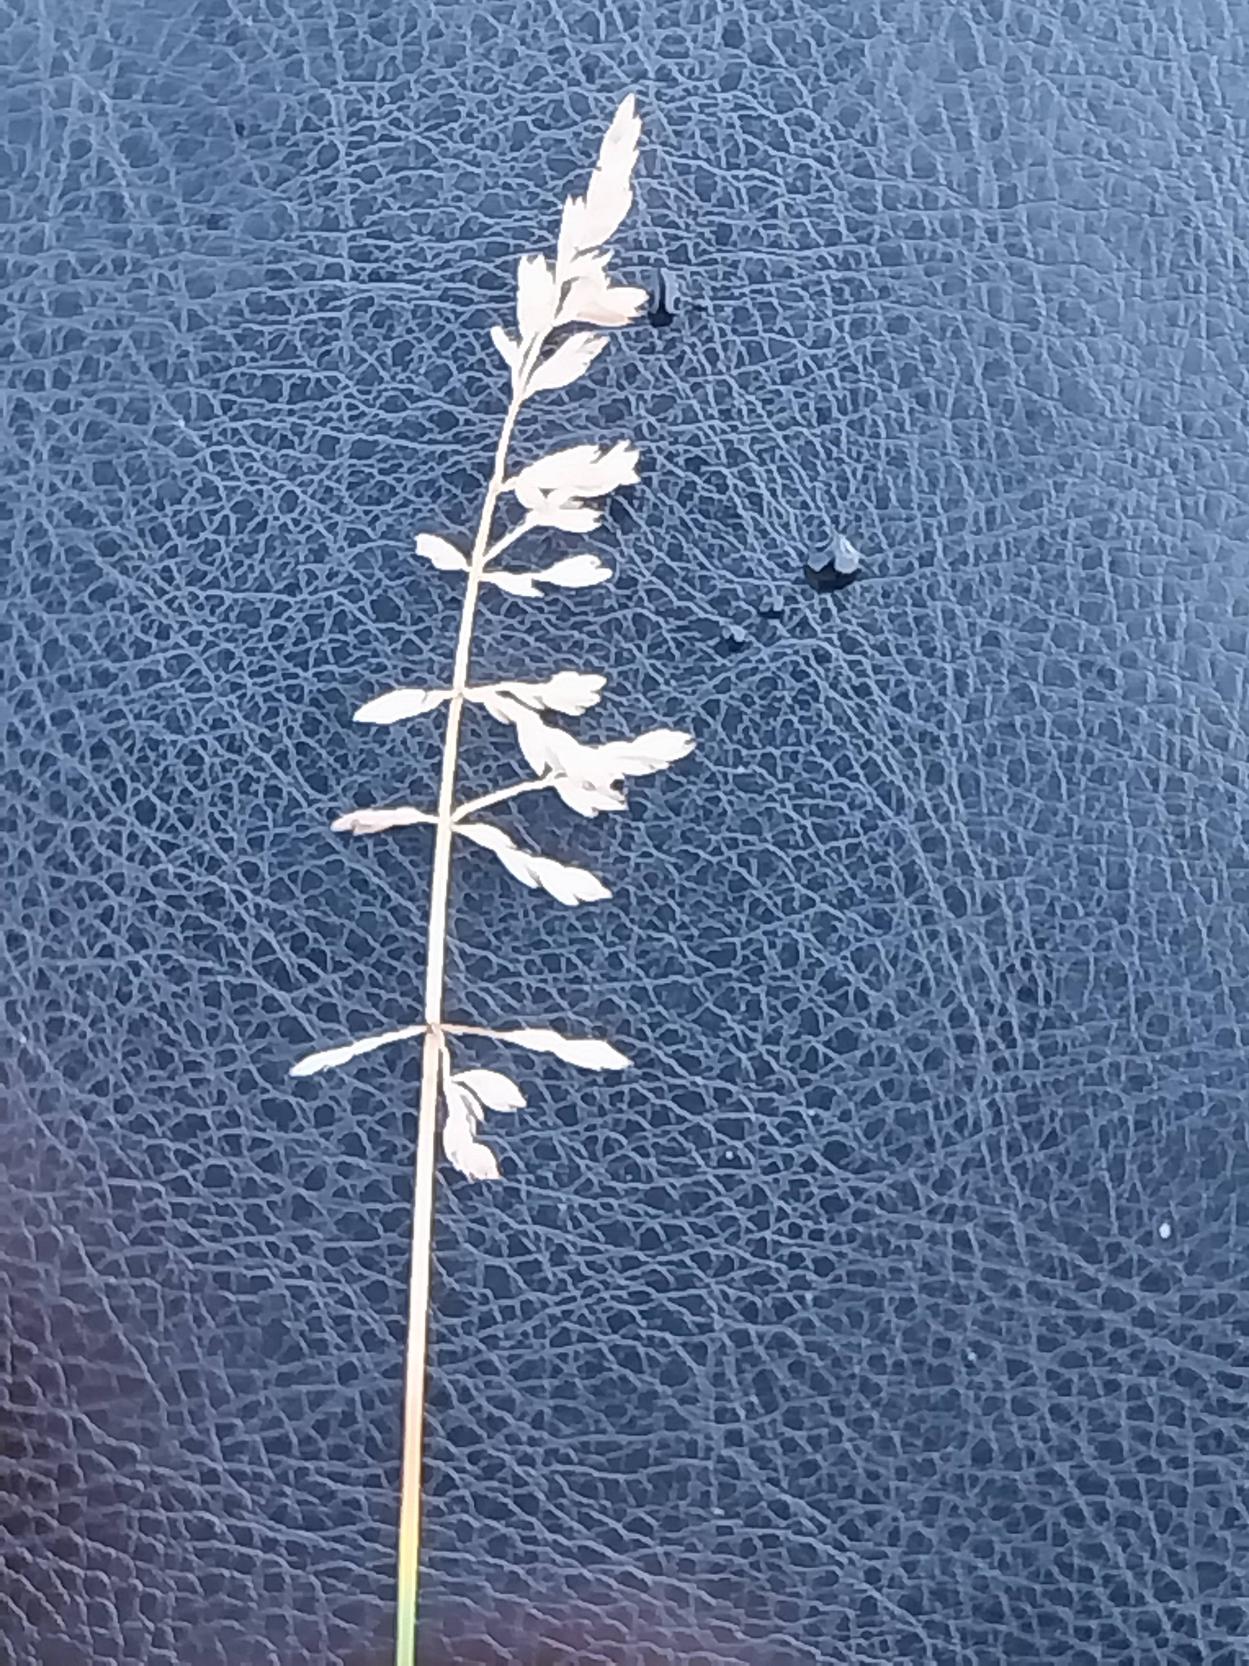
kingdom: Plantae
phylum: Tracheophyta
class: Liliopsida
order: Poales
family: Poaceae
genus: Poa
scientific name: Poa compressa
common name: Fladstrået rapgræs
